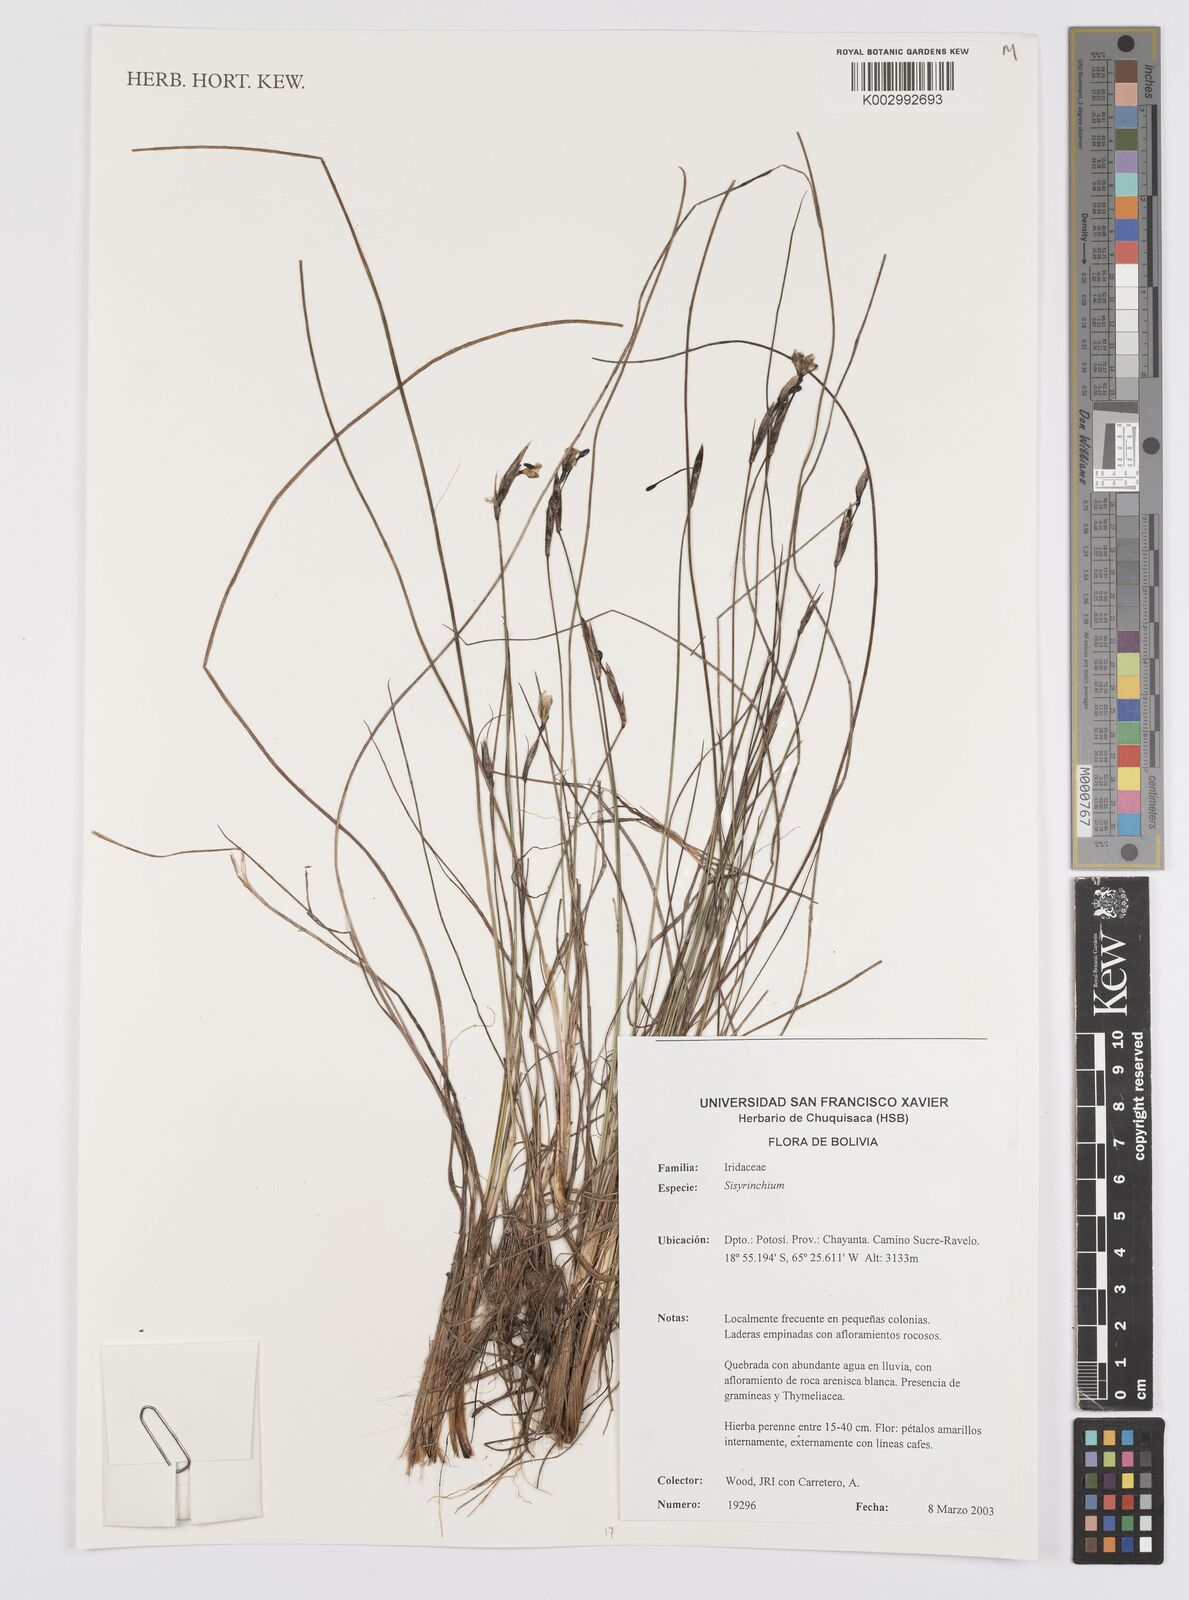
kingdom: Plantae
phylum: Tracheophyta
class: Liliopsida
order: Asparagales
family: Iridaceae
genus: Sisyrinchium
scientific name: Sisyrinchium
